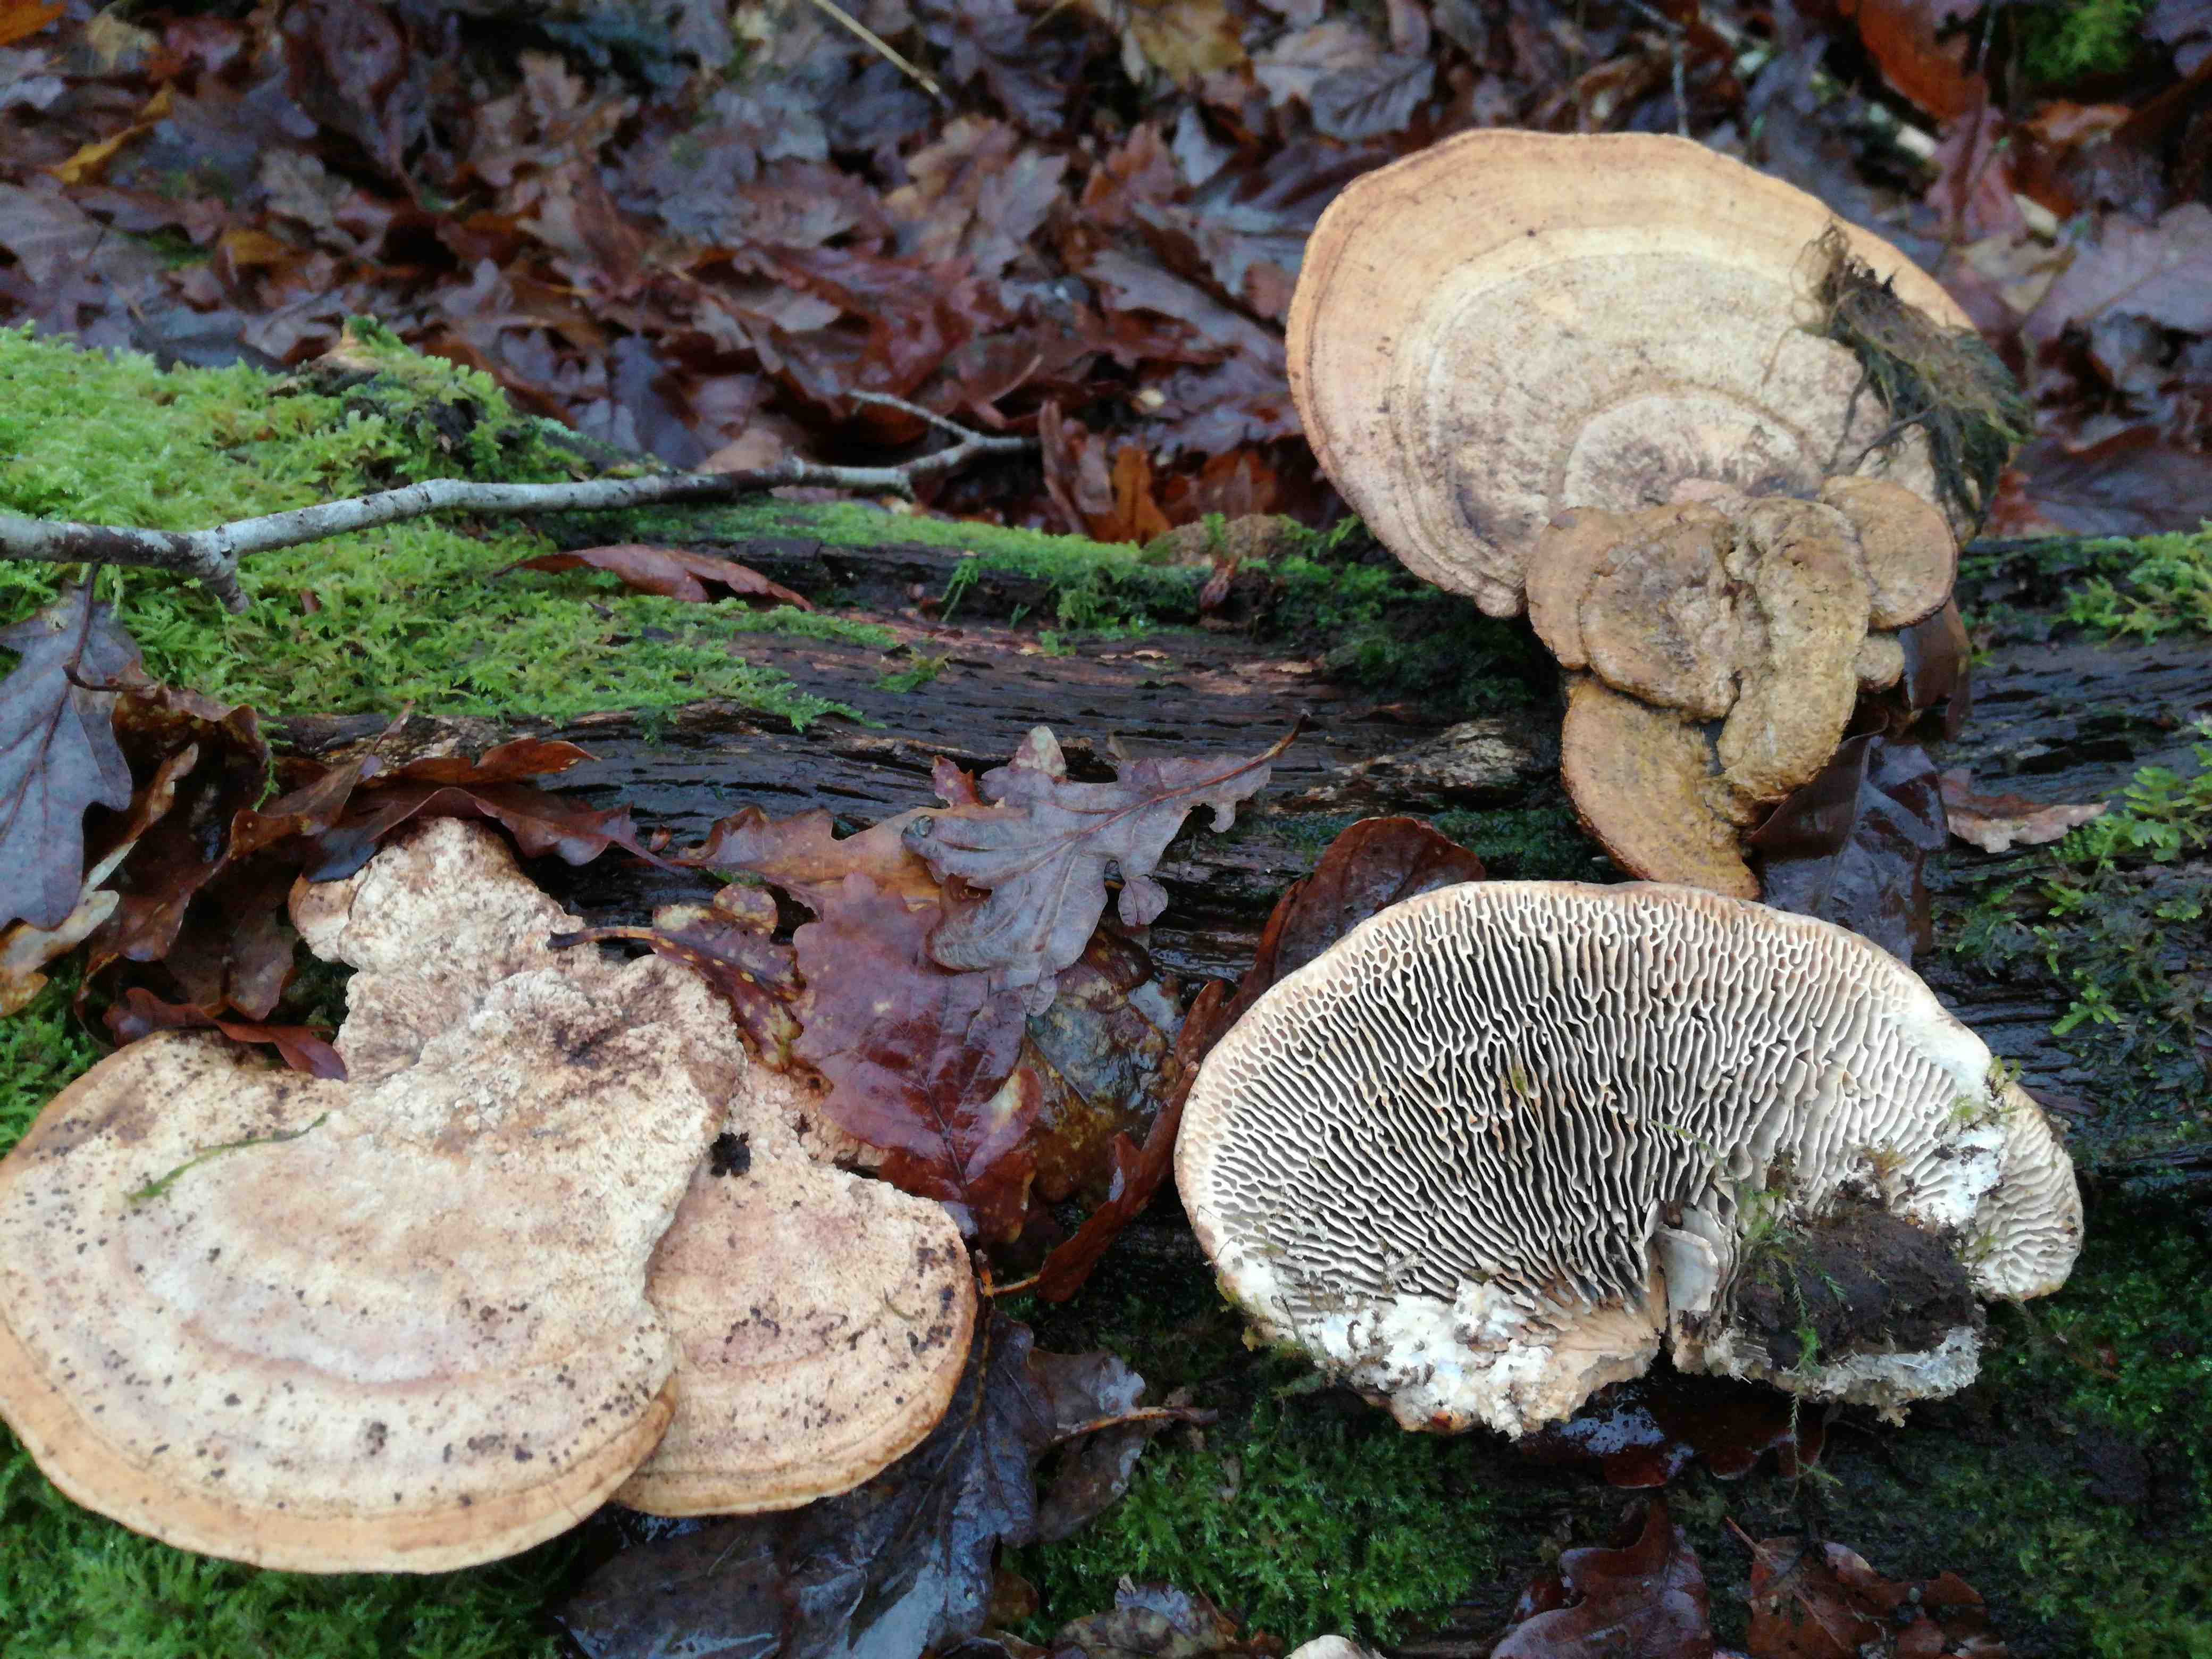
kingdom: Fungi
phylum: Basidiomycota
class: Agaricomycetes
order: Polyporales
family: Fomitopsidaceae
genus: Daedalea
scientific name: Daedalea quercina
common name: ege-labyrintsvamp
